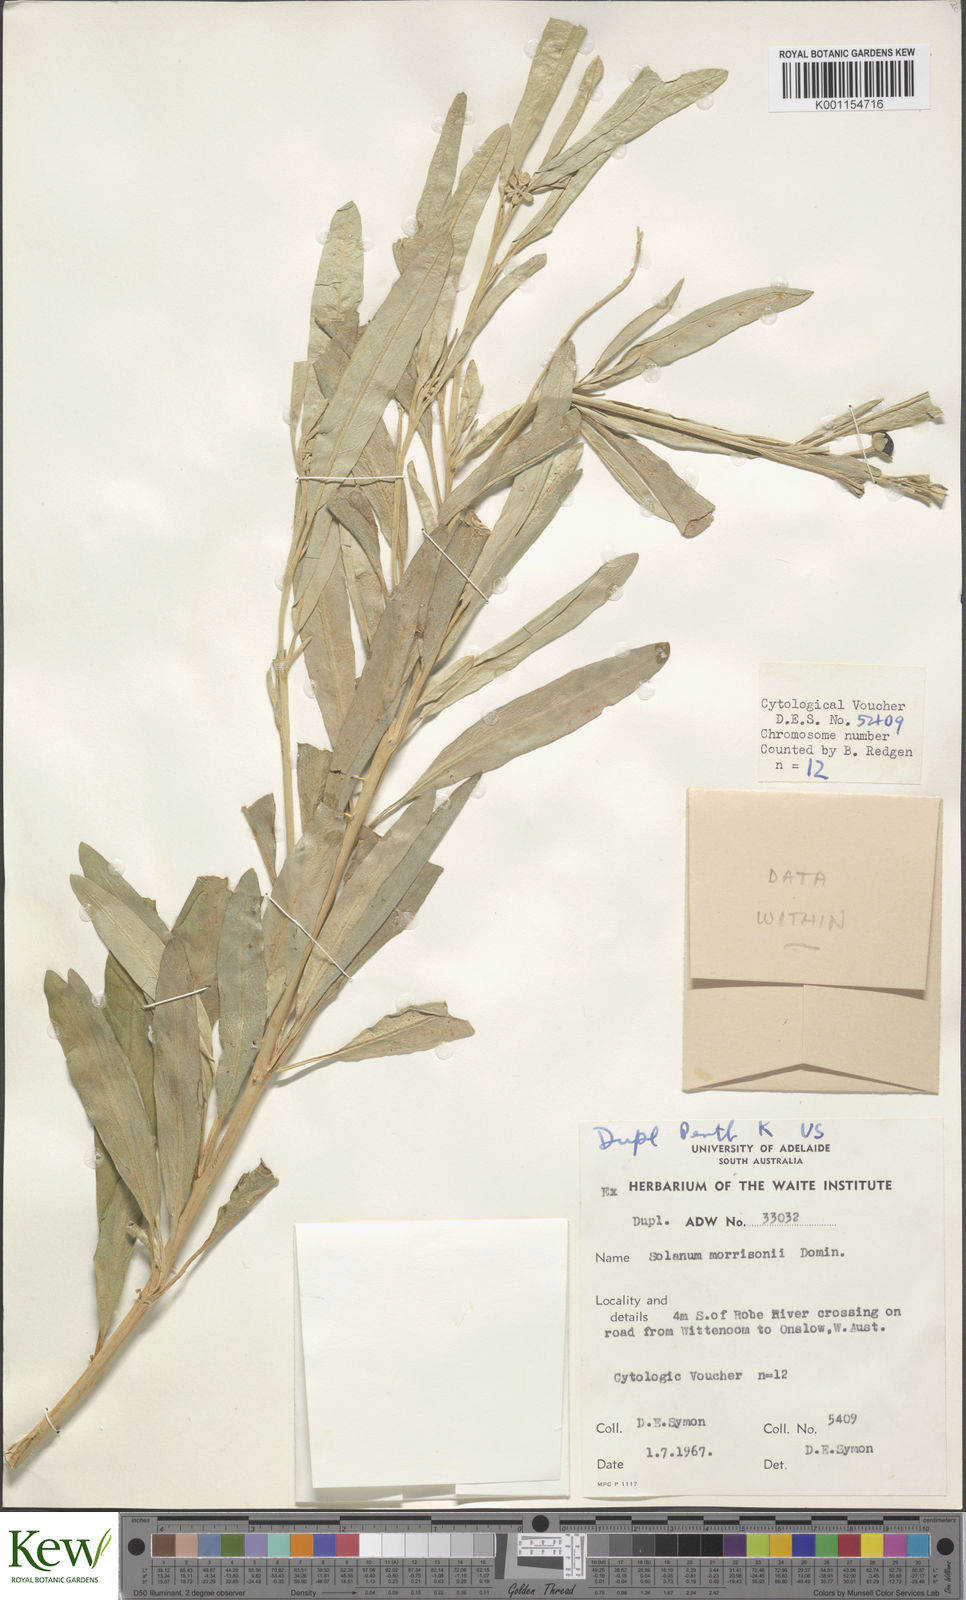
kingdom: Plantae
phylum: Tracheophyta
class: Magnoliopsida
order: Solanales
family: Solanaceae
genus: Solanum
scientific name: Solanum sturtianum
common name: Thargomindah nightshade
